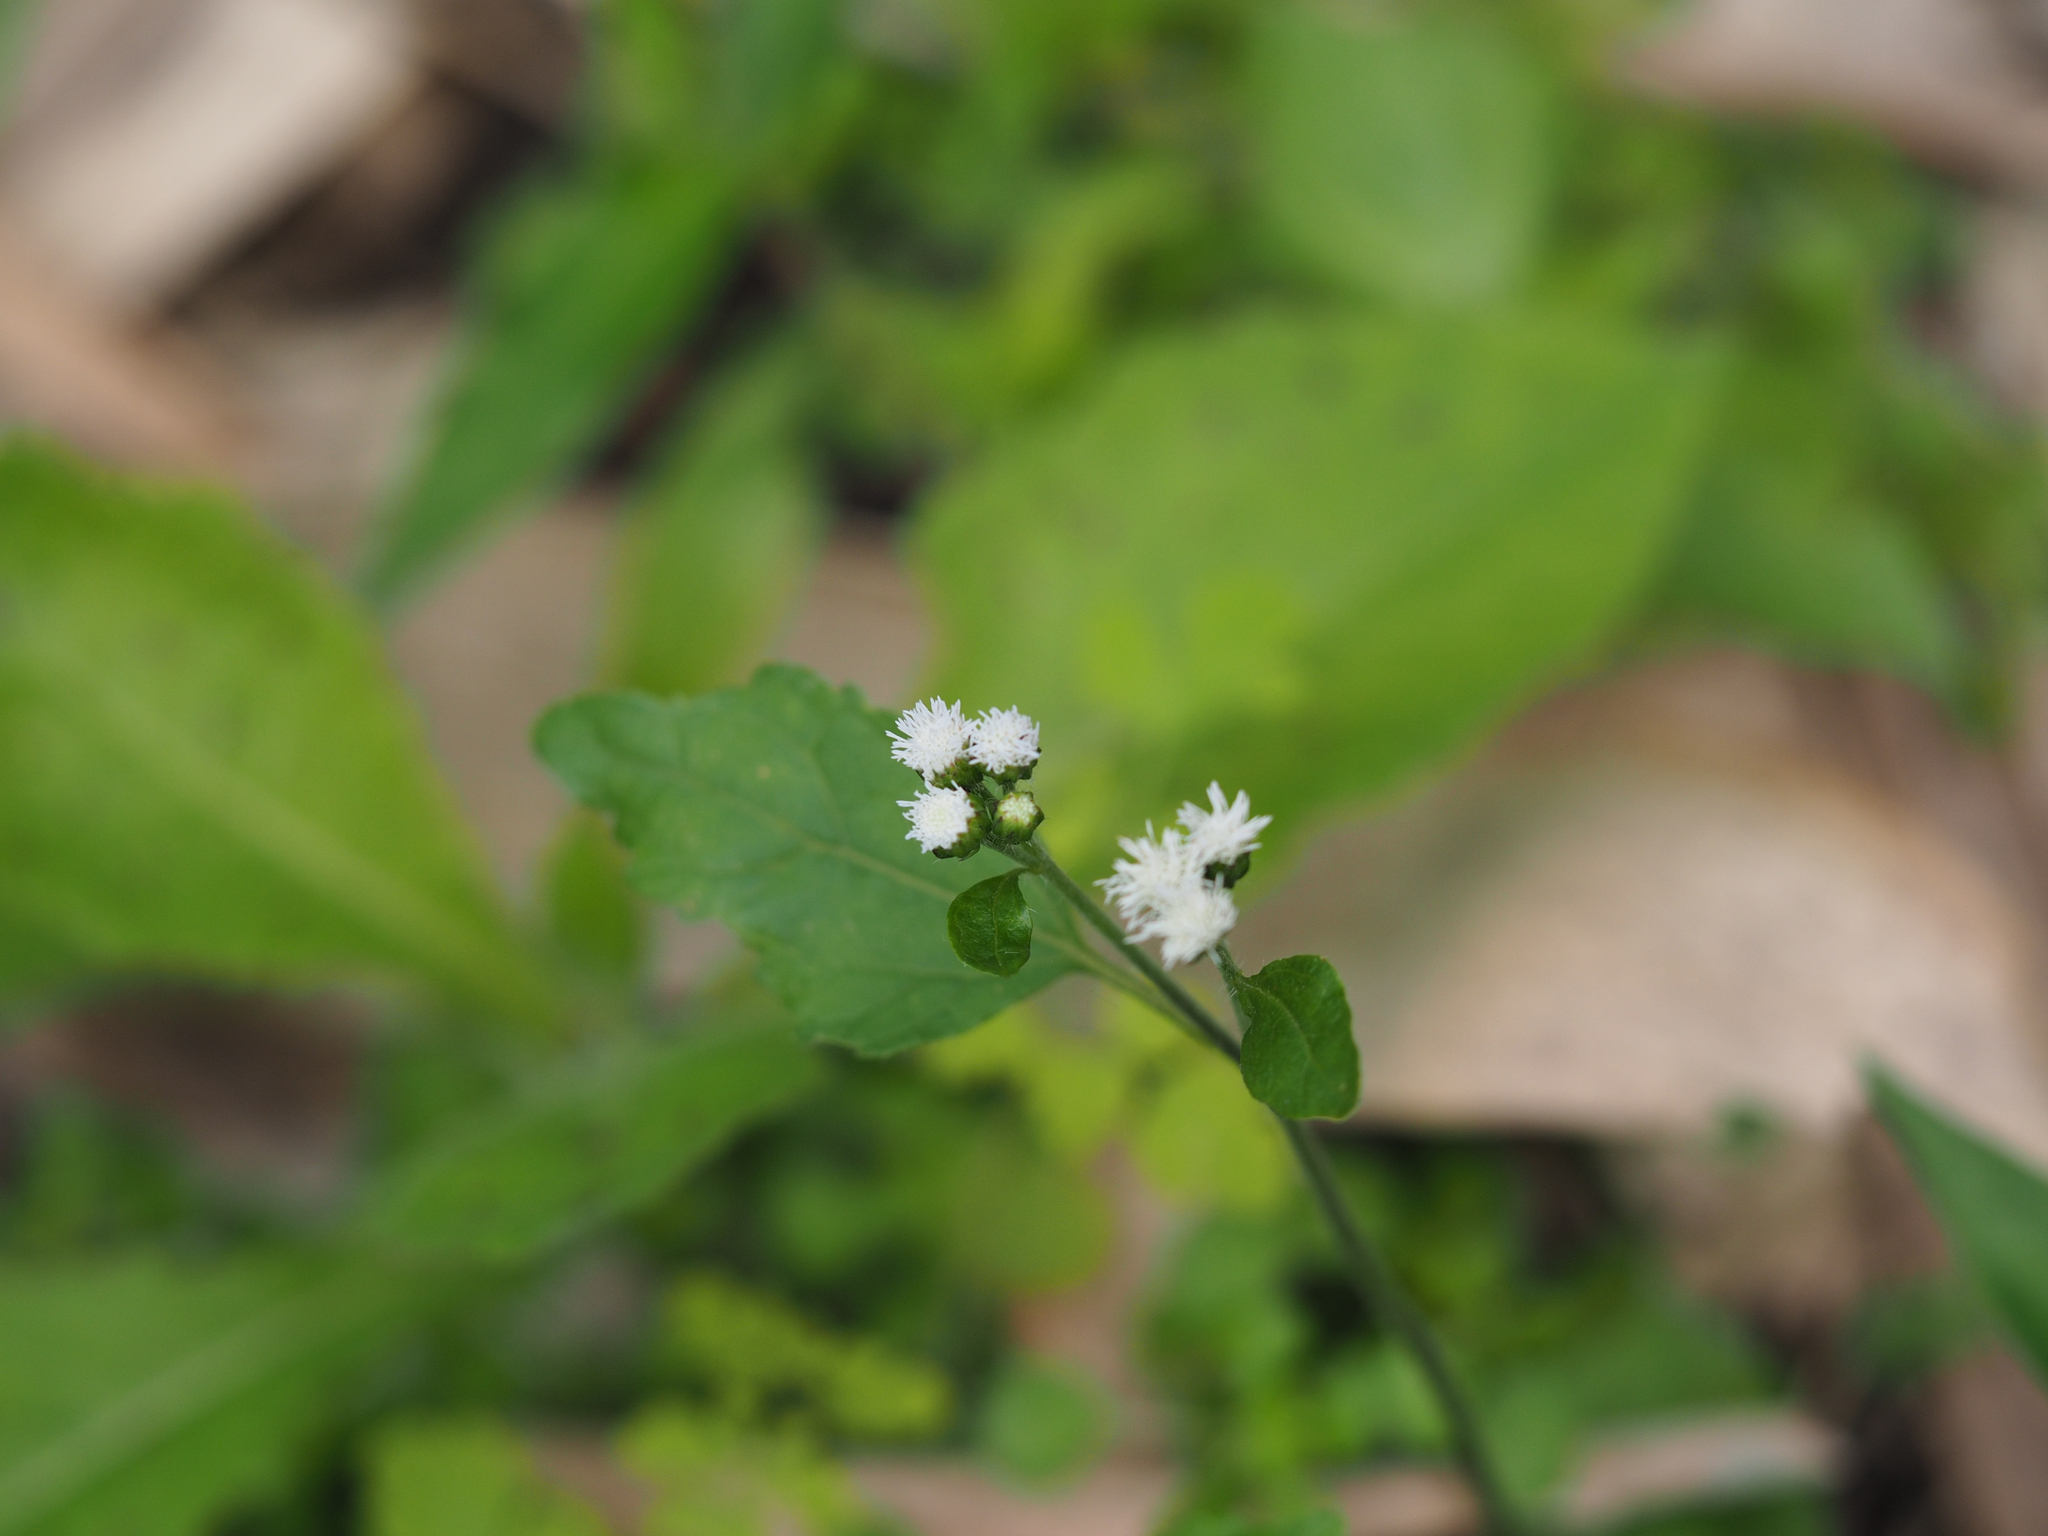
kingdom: Plantae
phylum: Tracheophyta
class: Magnoliopsida
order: Asterales
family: Asteraceae
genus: Ageratum
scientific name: Ageratum conyzoides
